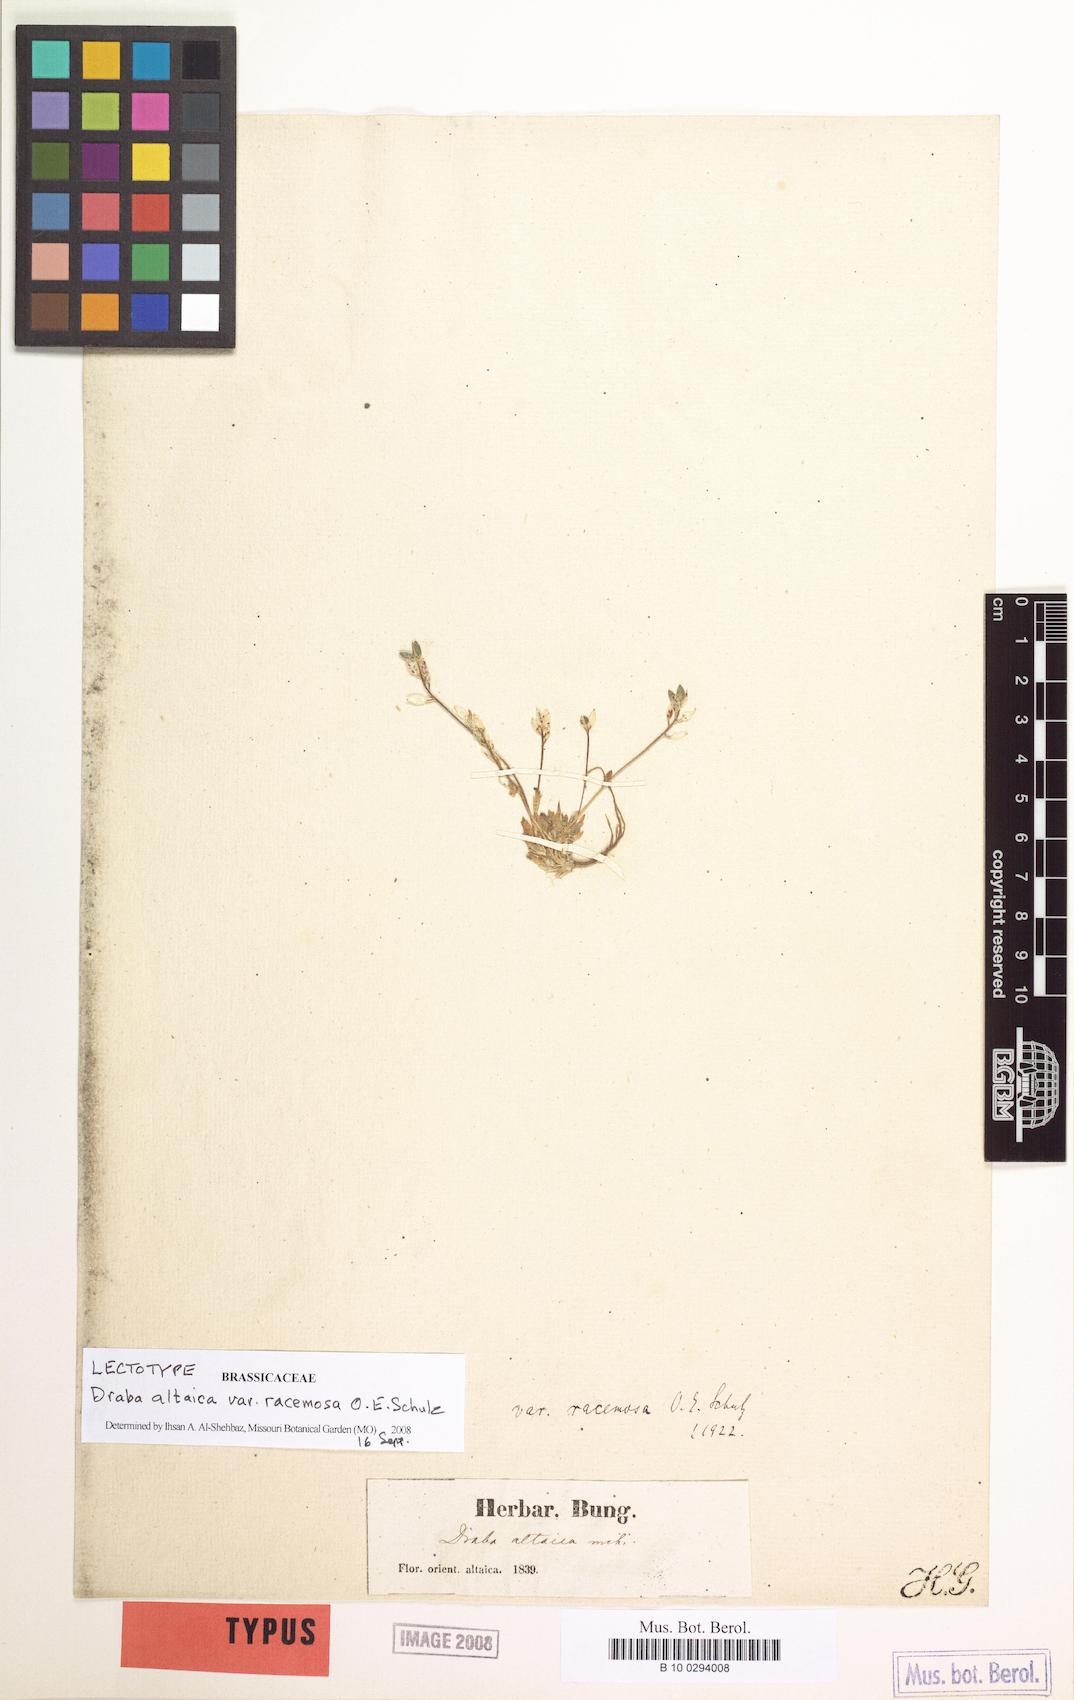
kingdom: Plantae
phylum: Tracheophyta
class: Magnoliopsida
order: Brassicales
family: Brassicaceae
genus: Draba
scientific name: Draba altaica
